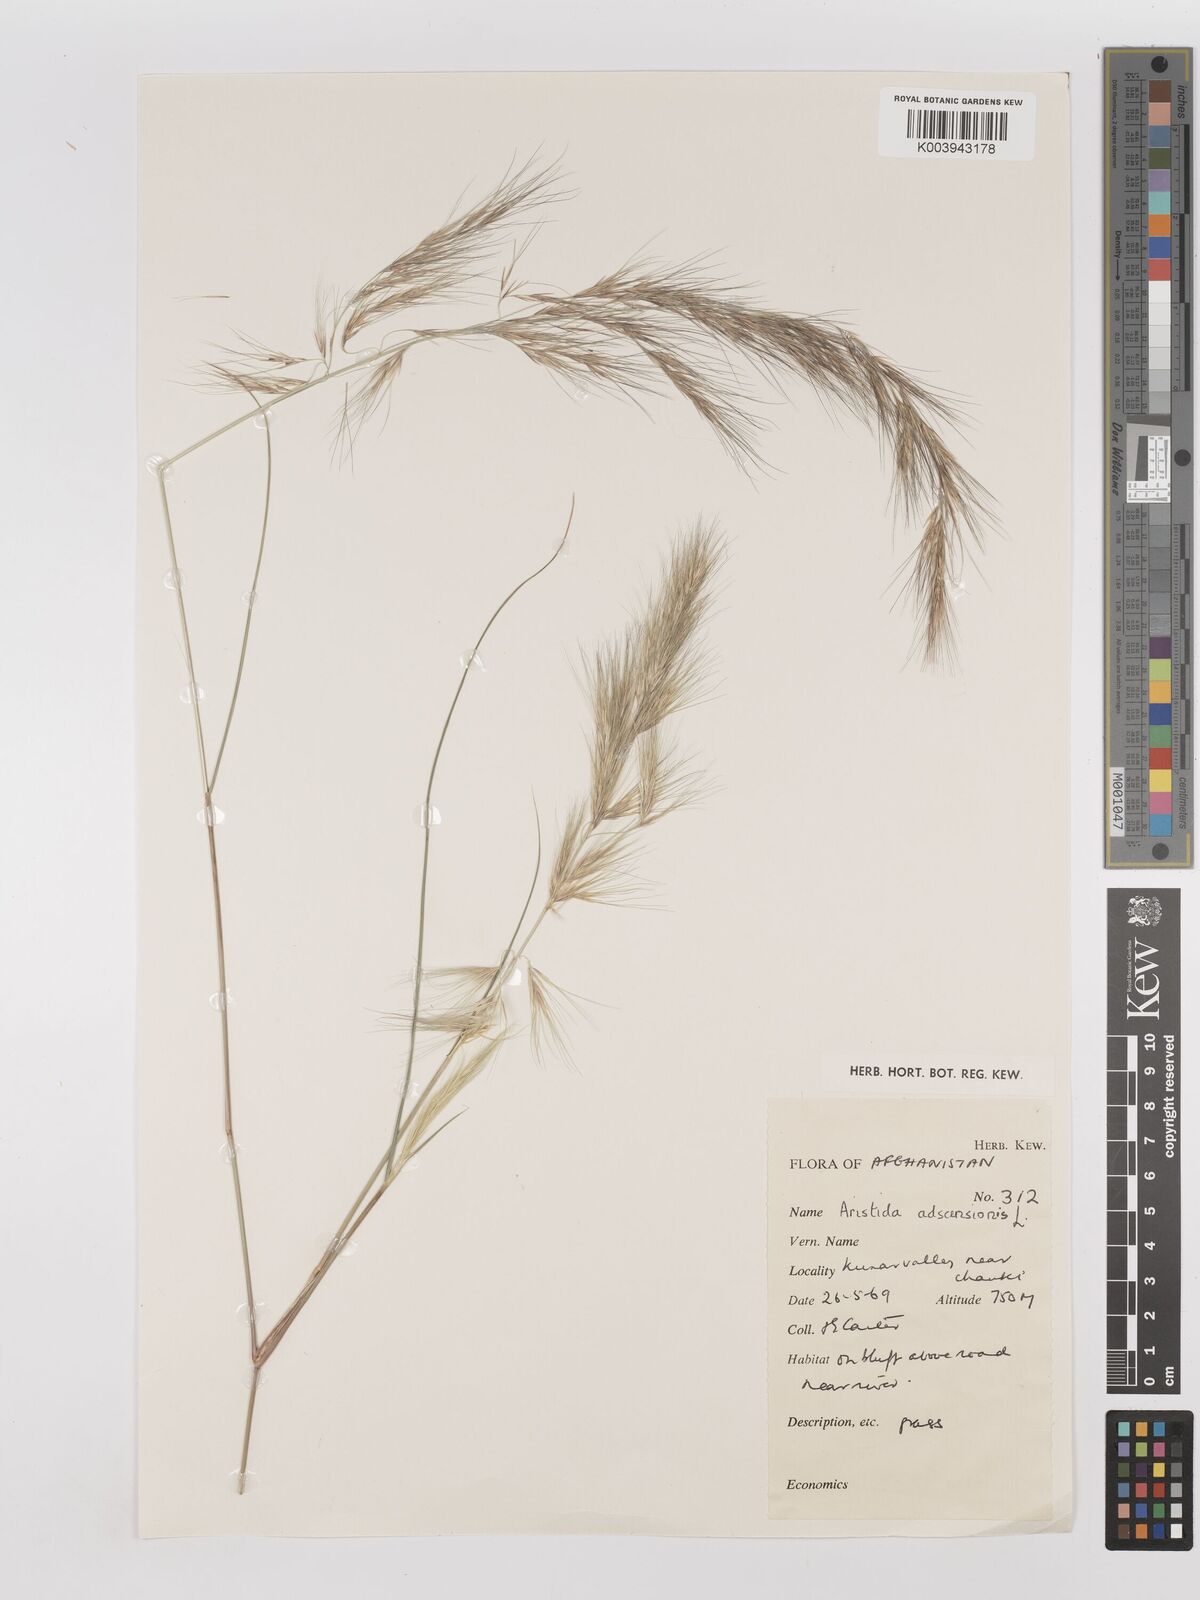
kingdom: Plantae
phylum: Tracheophyta
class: Liliopsida
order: Poales
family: Poaceae
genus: Aristida
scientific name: Aristida adscensionis
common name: Sixweeks threeawn
